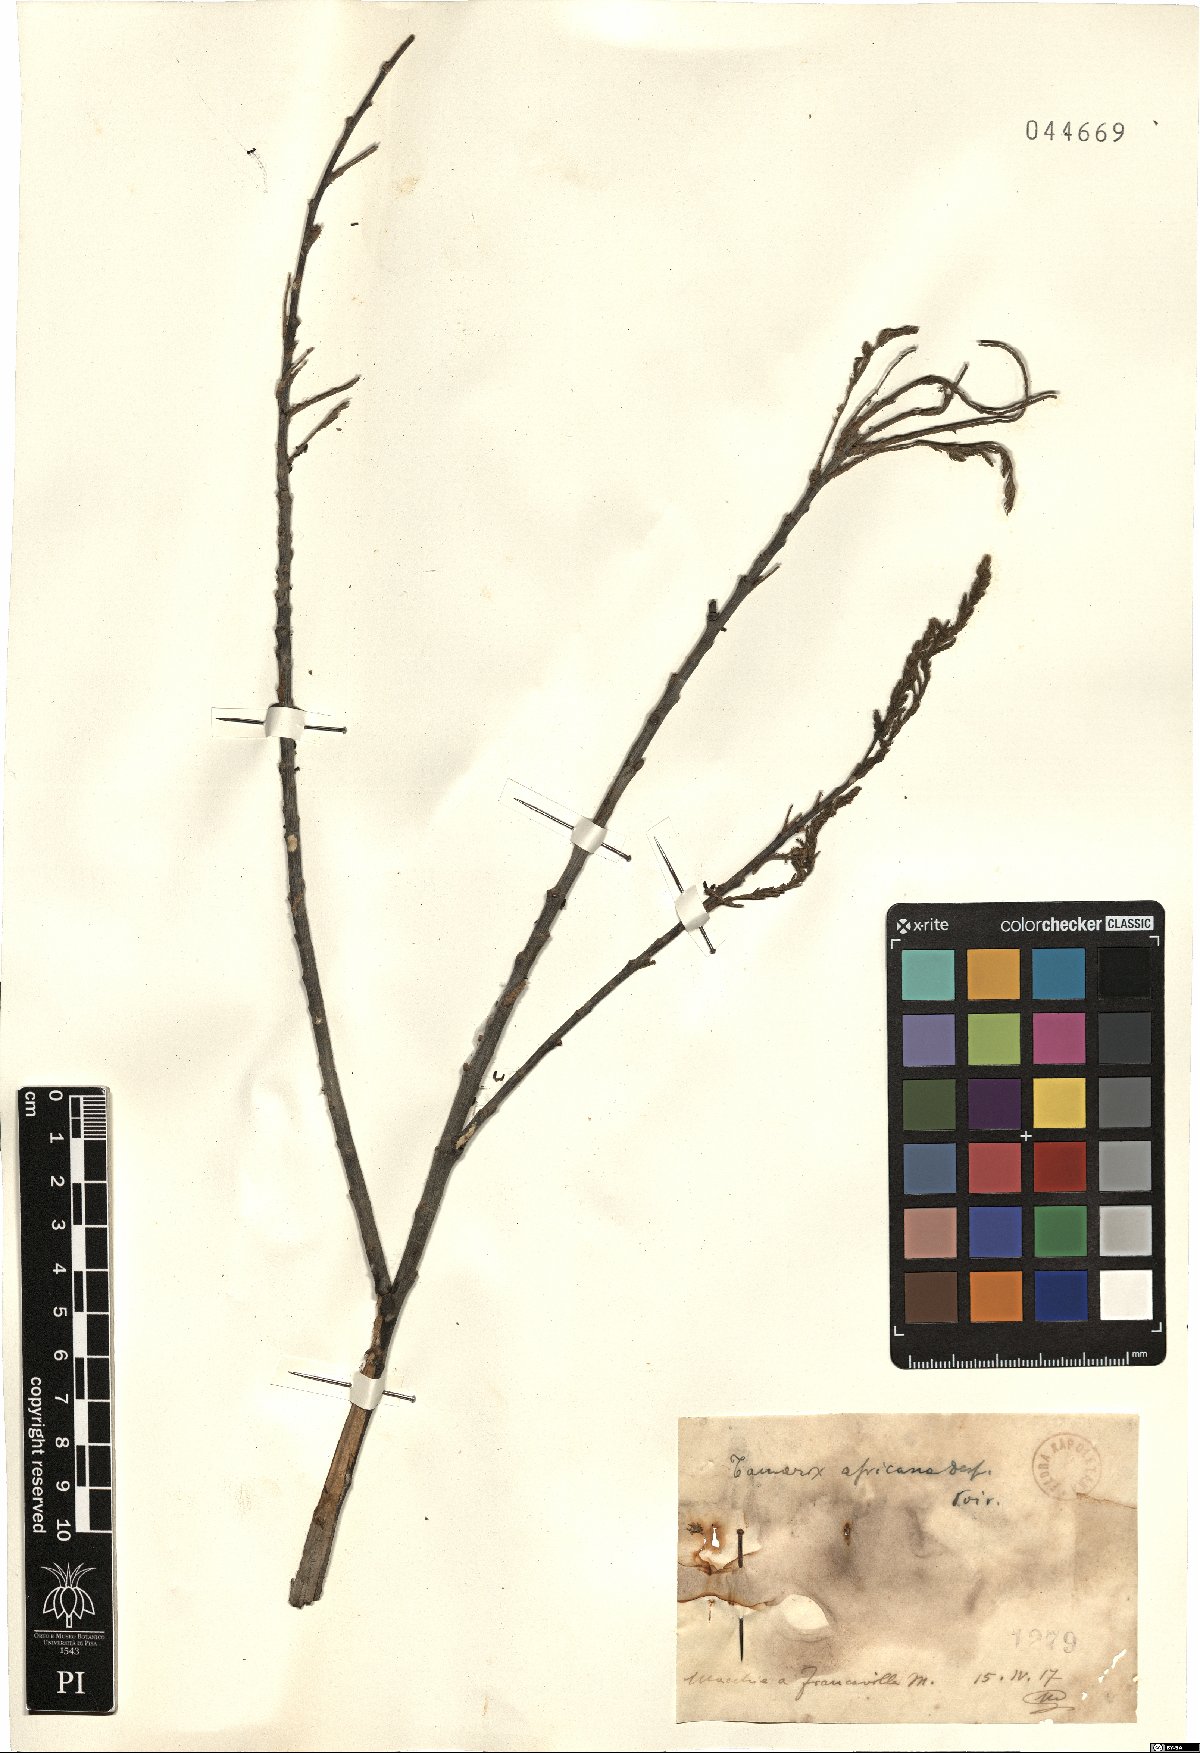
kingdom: Plantae
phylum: Tracheophyta
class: Magnoliopsida
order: Caryophyllales
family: Tamaricaceae
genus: Tamarix
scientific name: Tamarix africana
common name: African tamarisk
